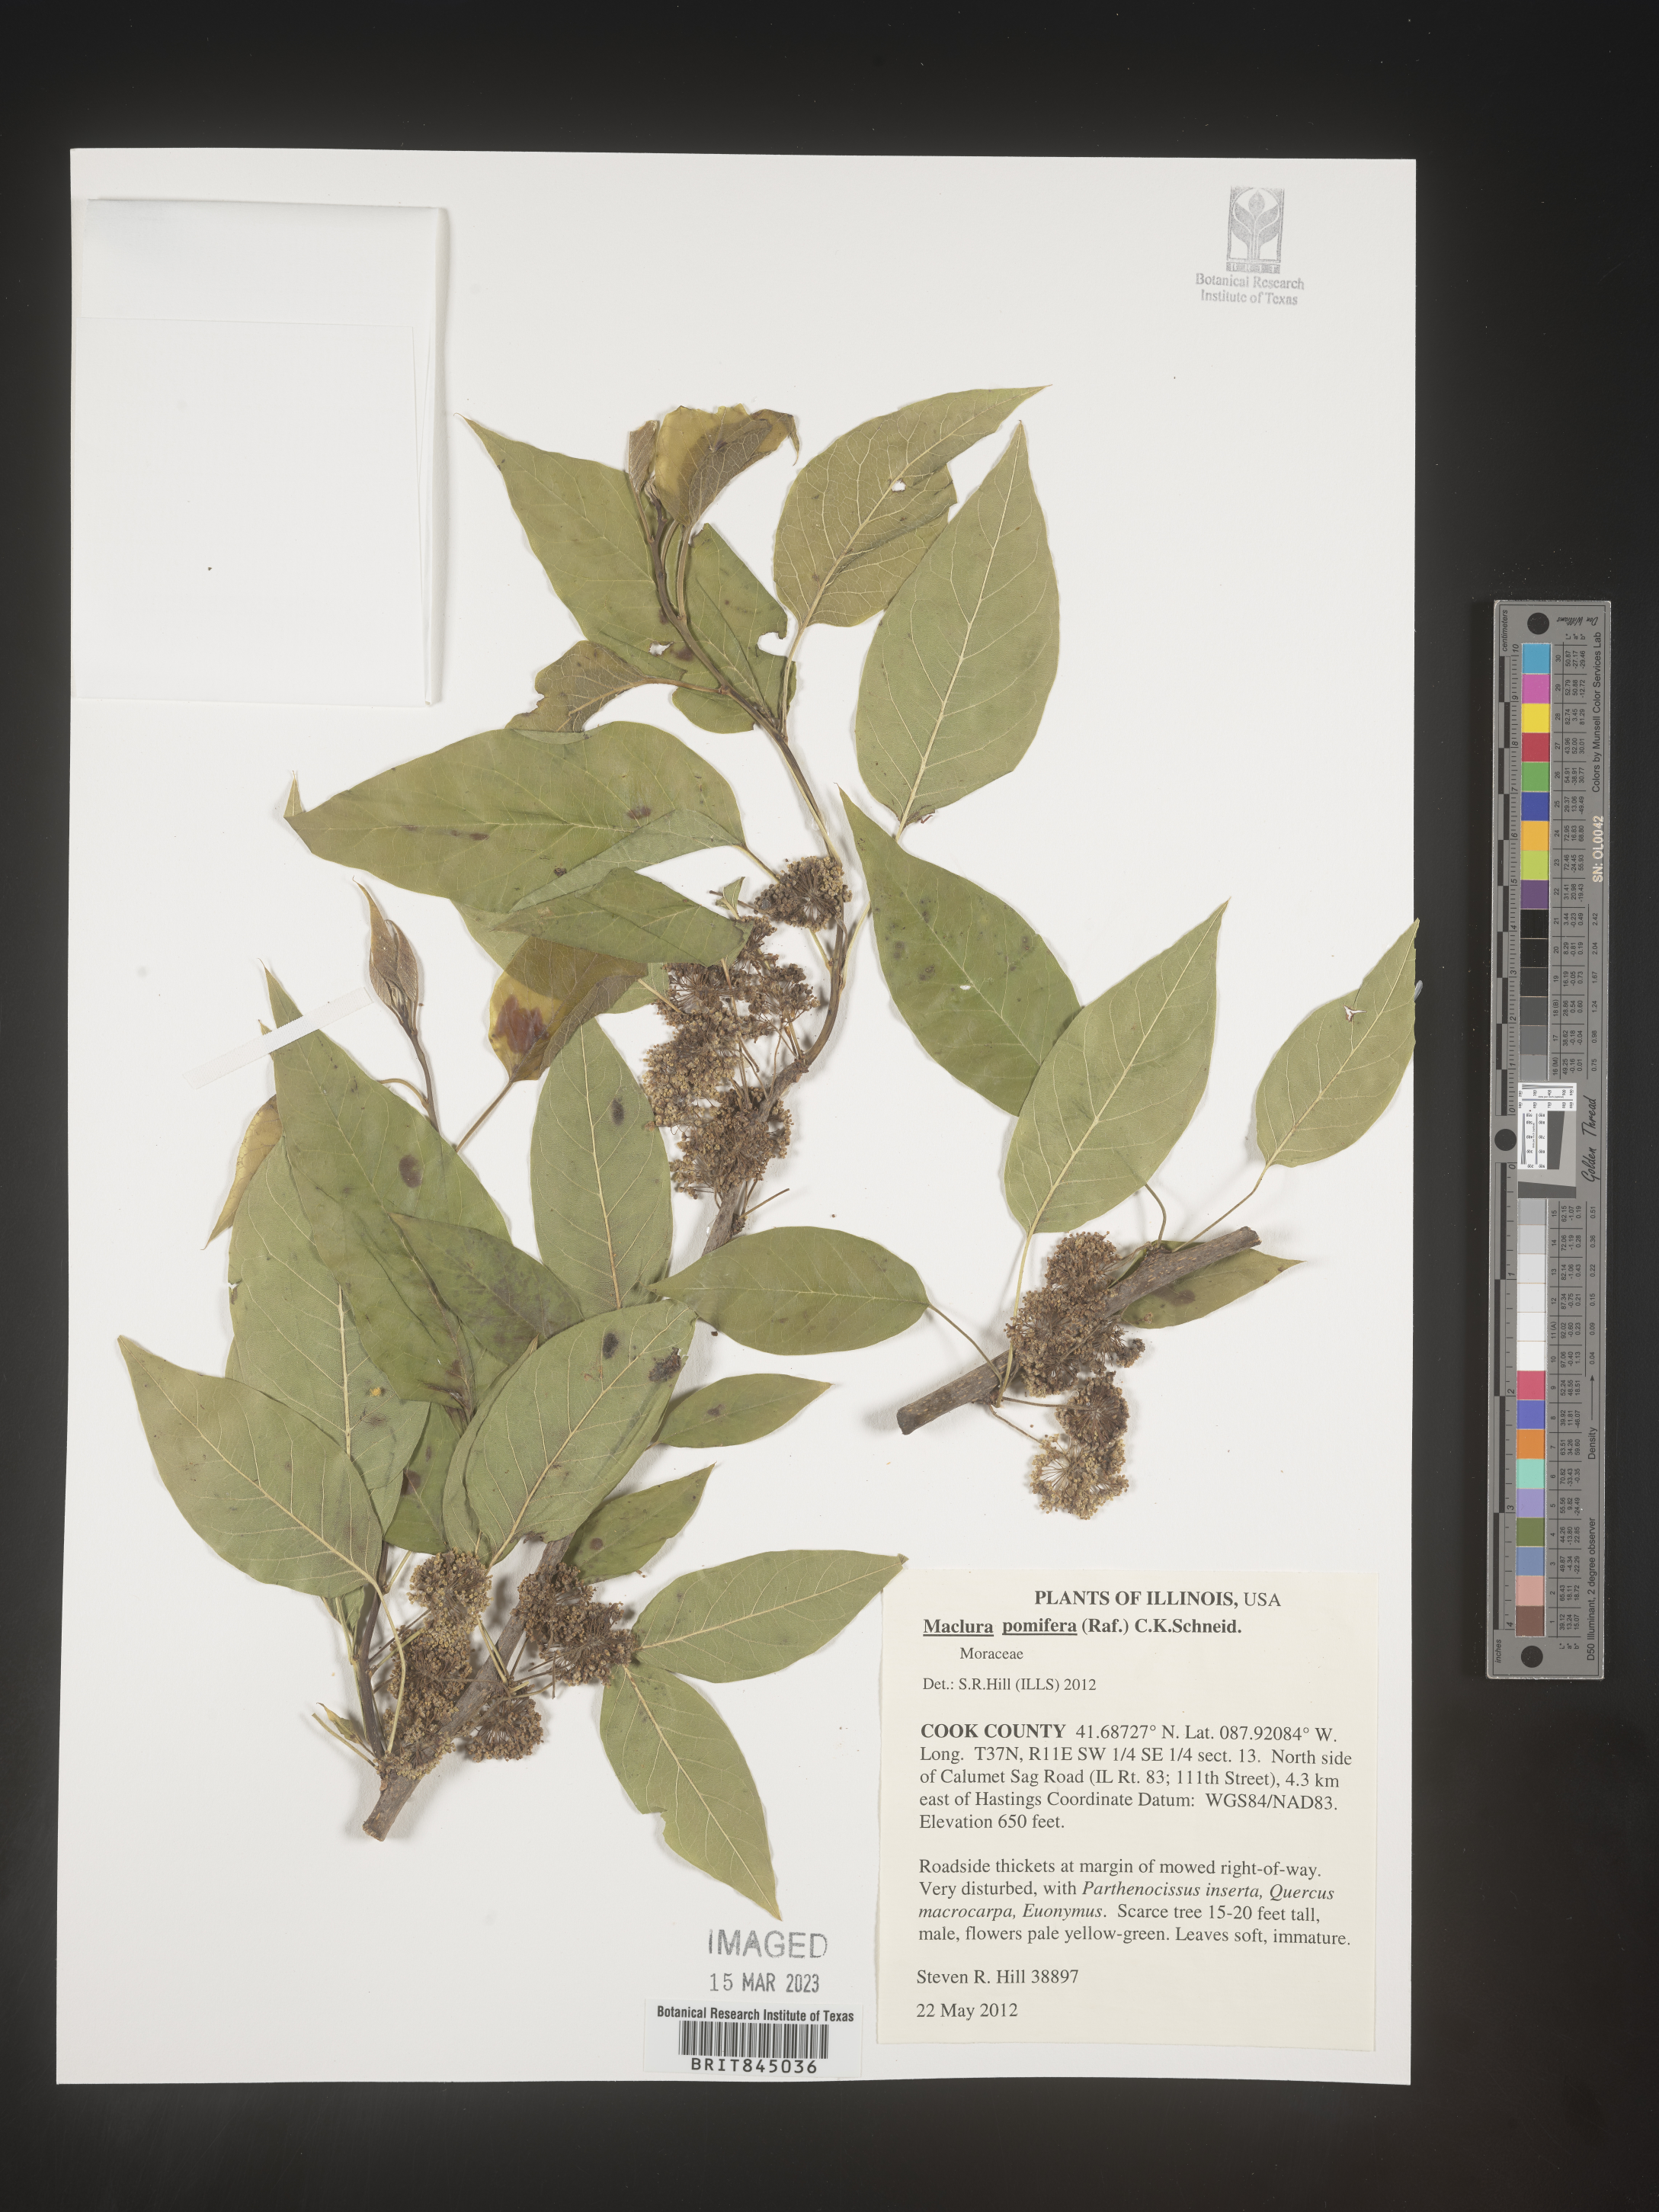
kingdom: Plantae
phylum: Tracheophyta
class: Magnoliopsida
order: Rosales
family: Moraceae
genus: Maclura
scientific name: Maclura pomifera
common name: Osage-orange
